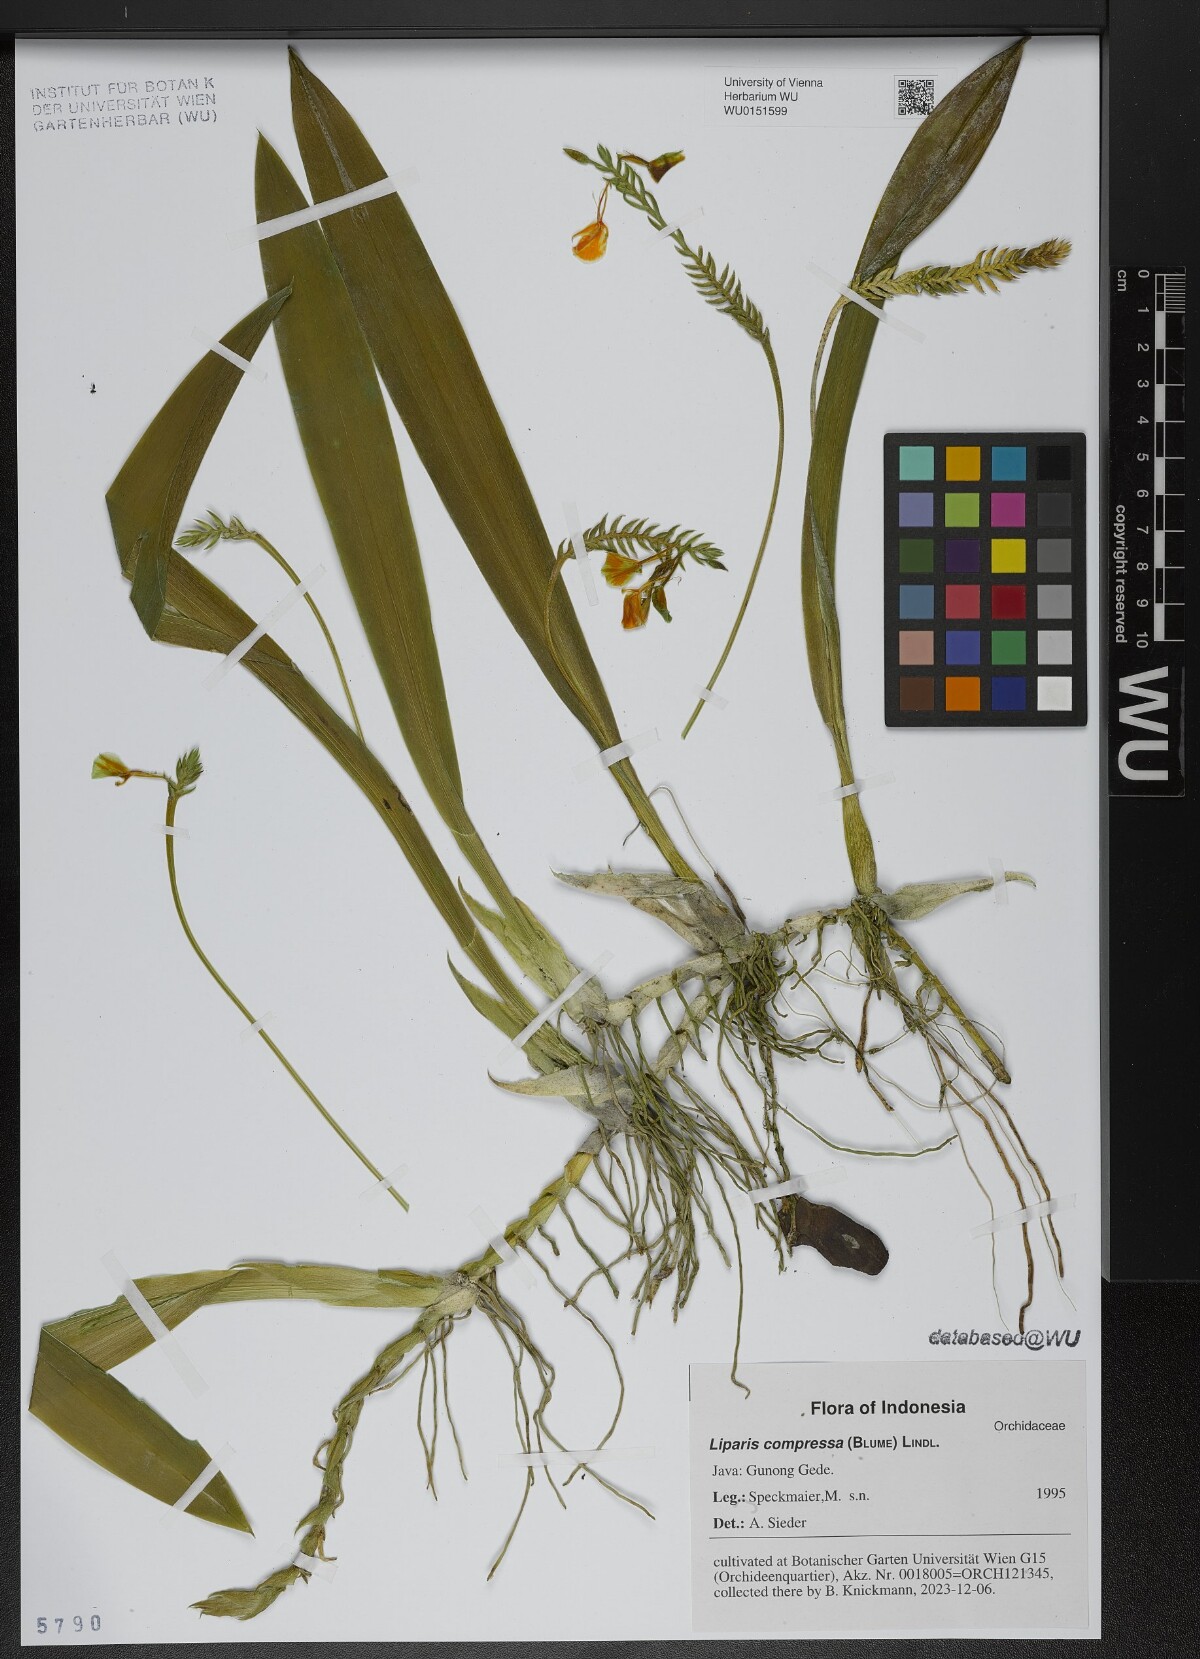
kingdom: Plantae
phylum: Tracheophyta
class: Liliopsida
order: Asparagales
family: Orchidaceae
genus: Stichorkis
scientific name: Stichorkis compressa
